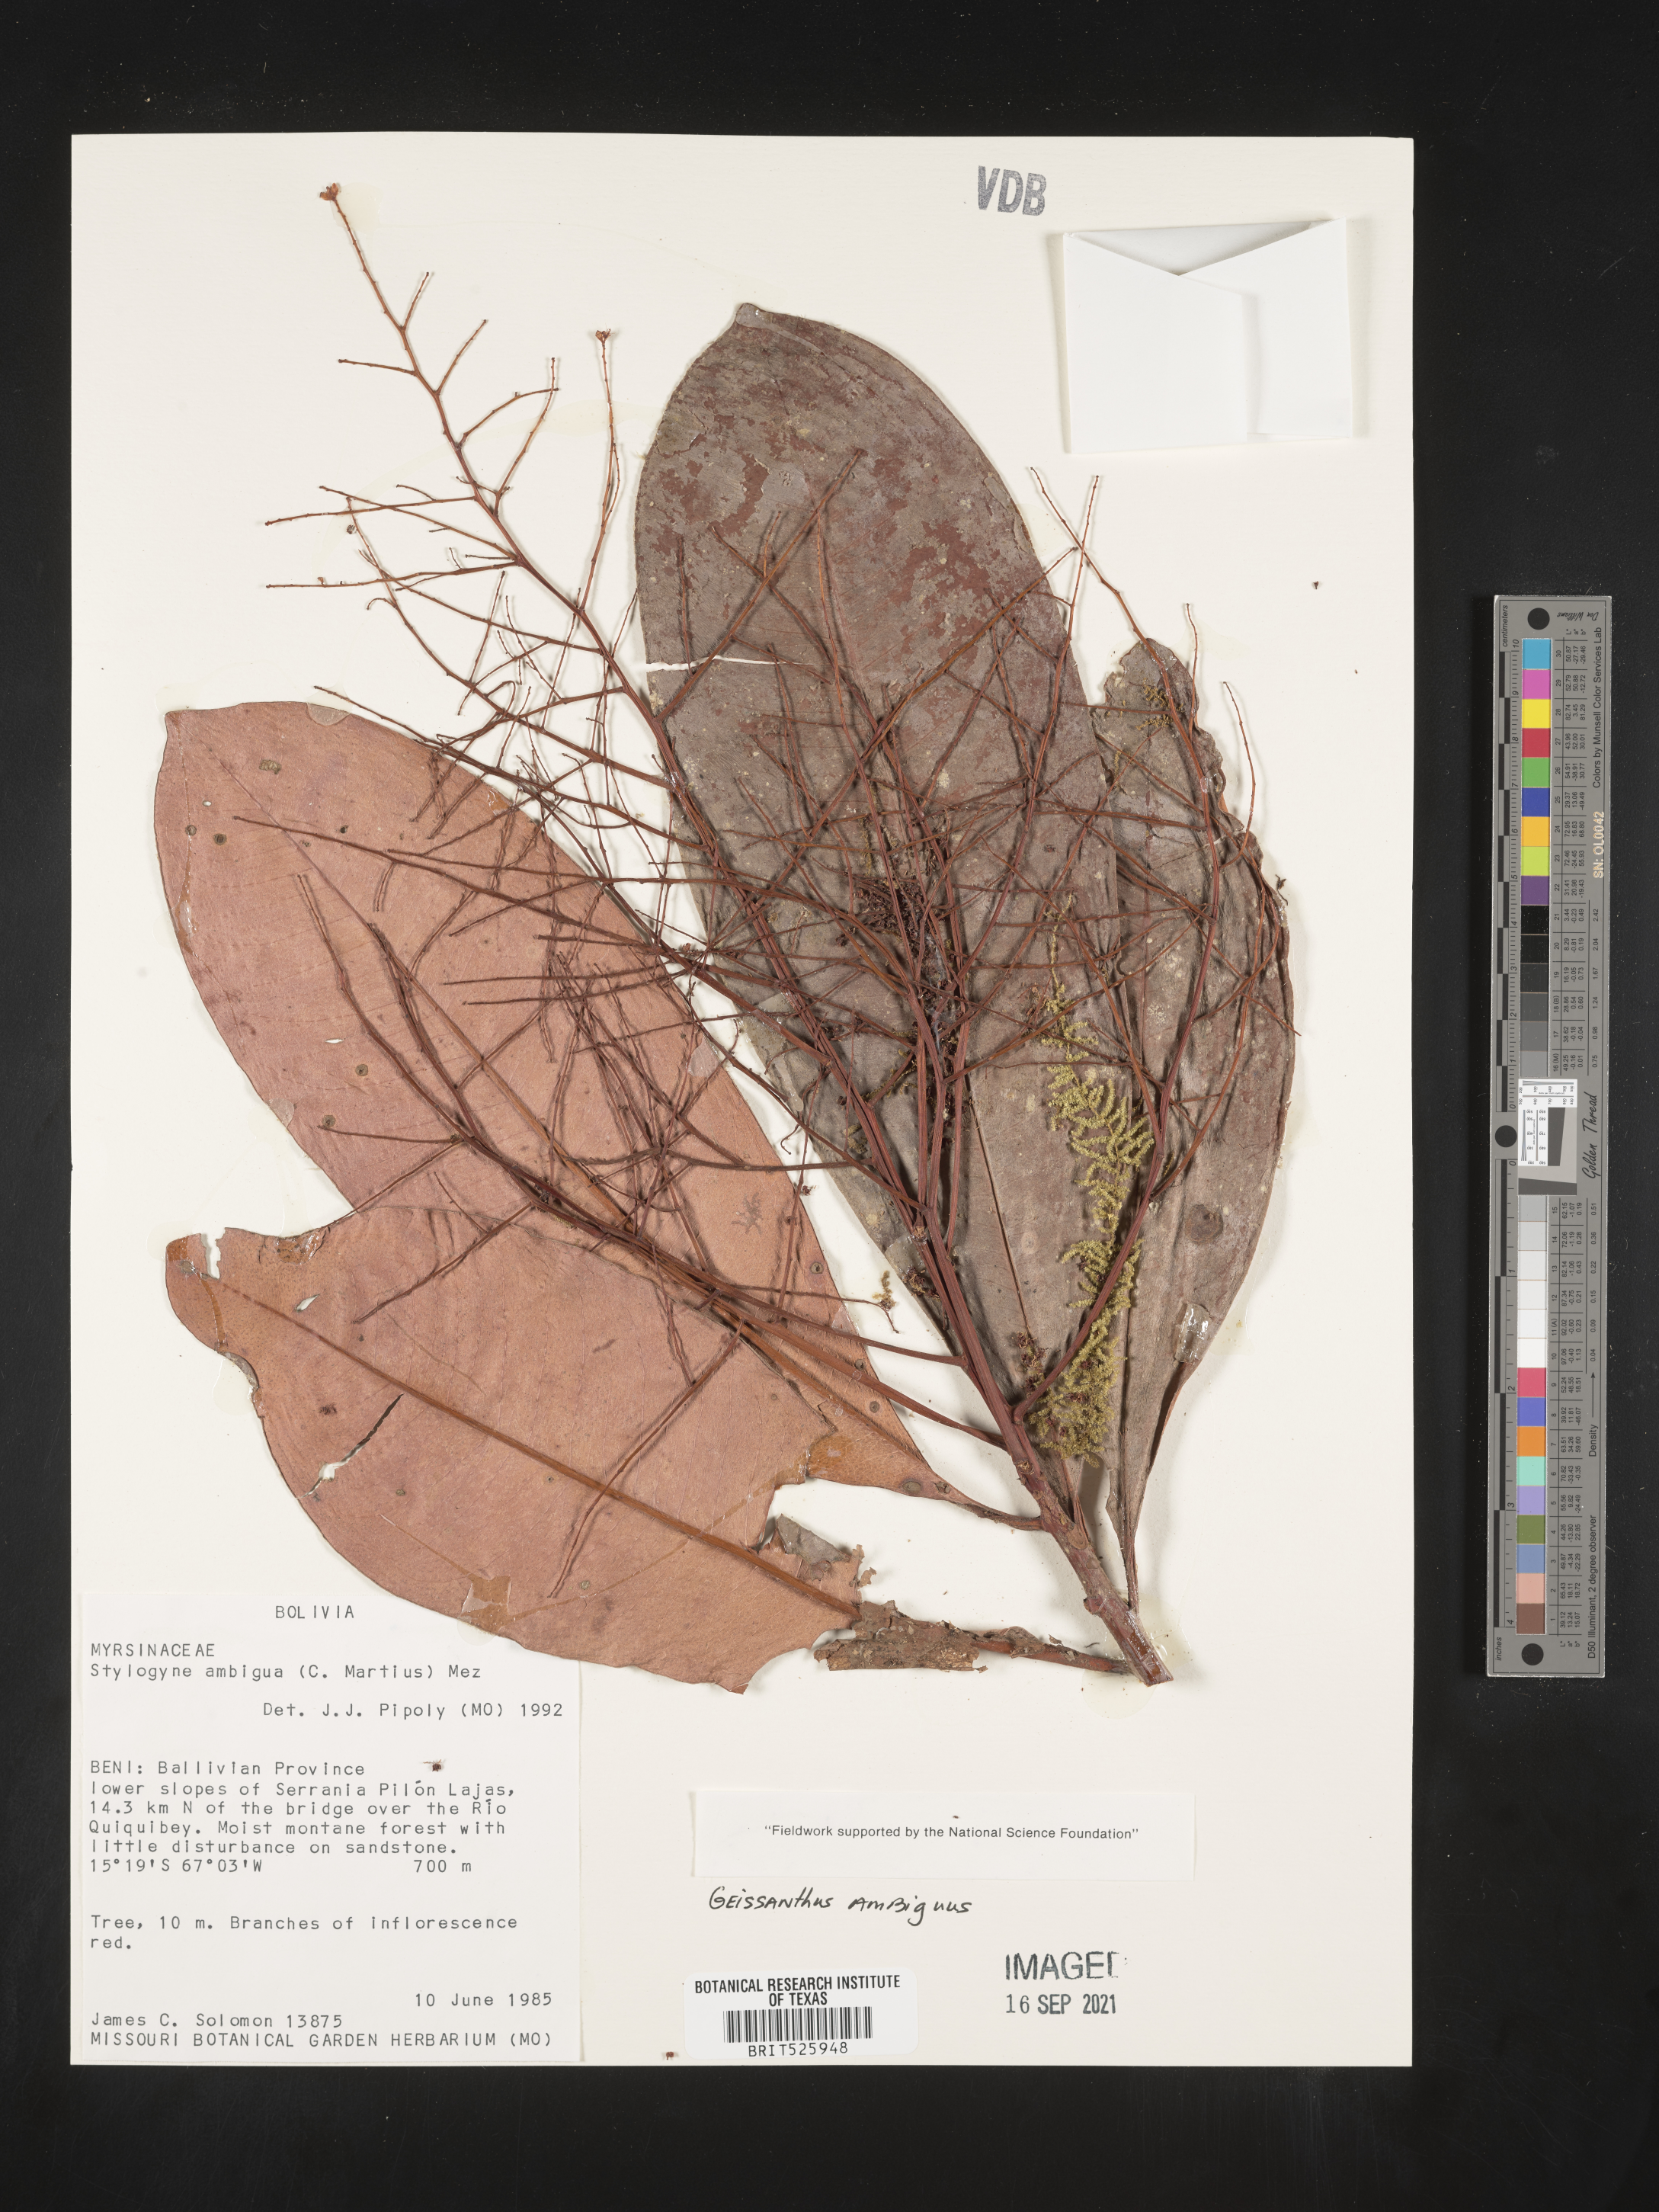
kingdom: Plantae
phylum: Tracheophyta
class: Magnoliopsida
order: Ericales
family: Primulaceae
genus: Geissanthus
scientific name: Geissanthus
